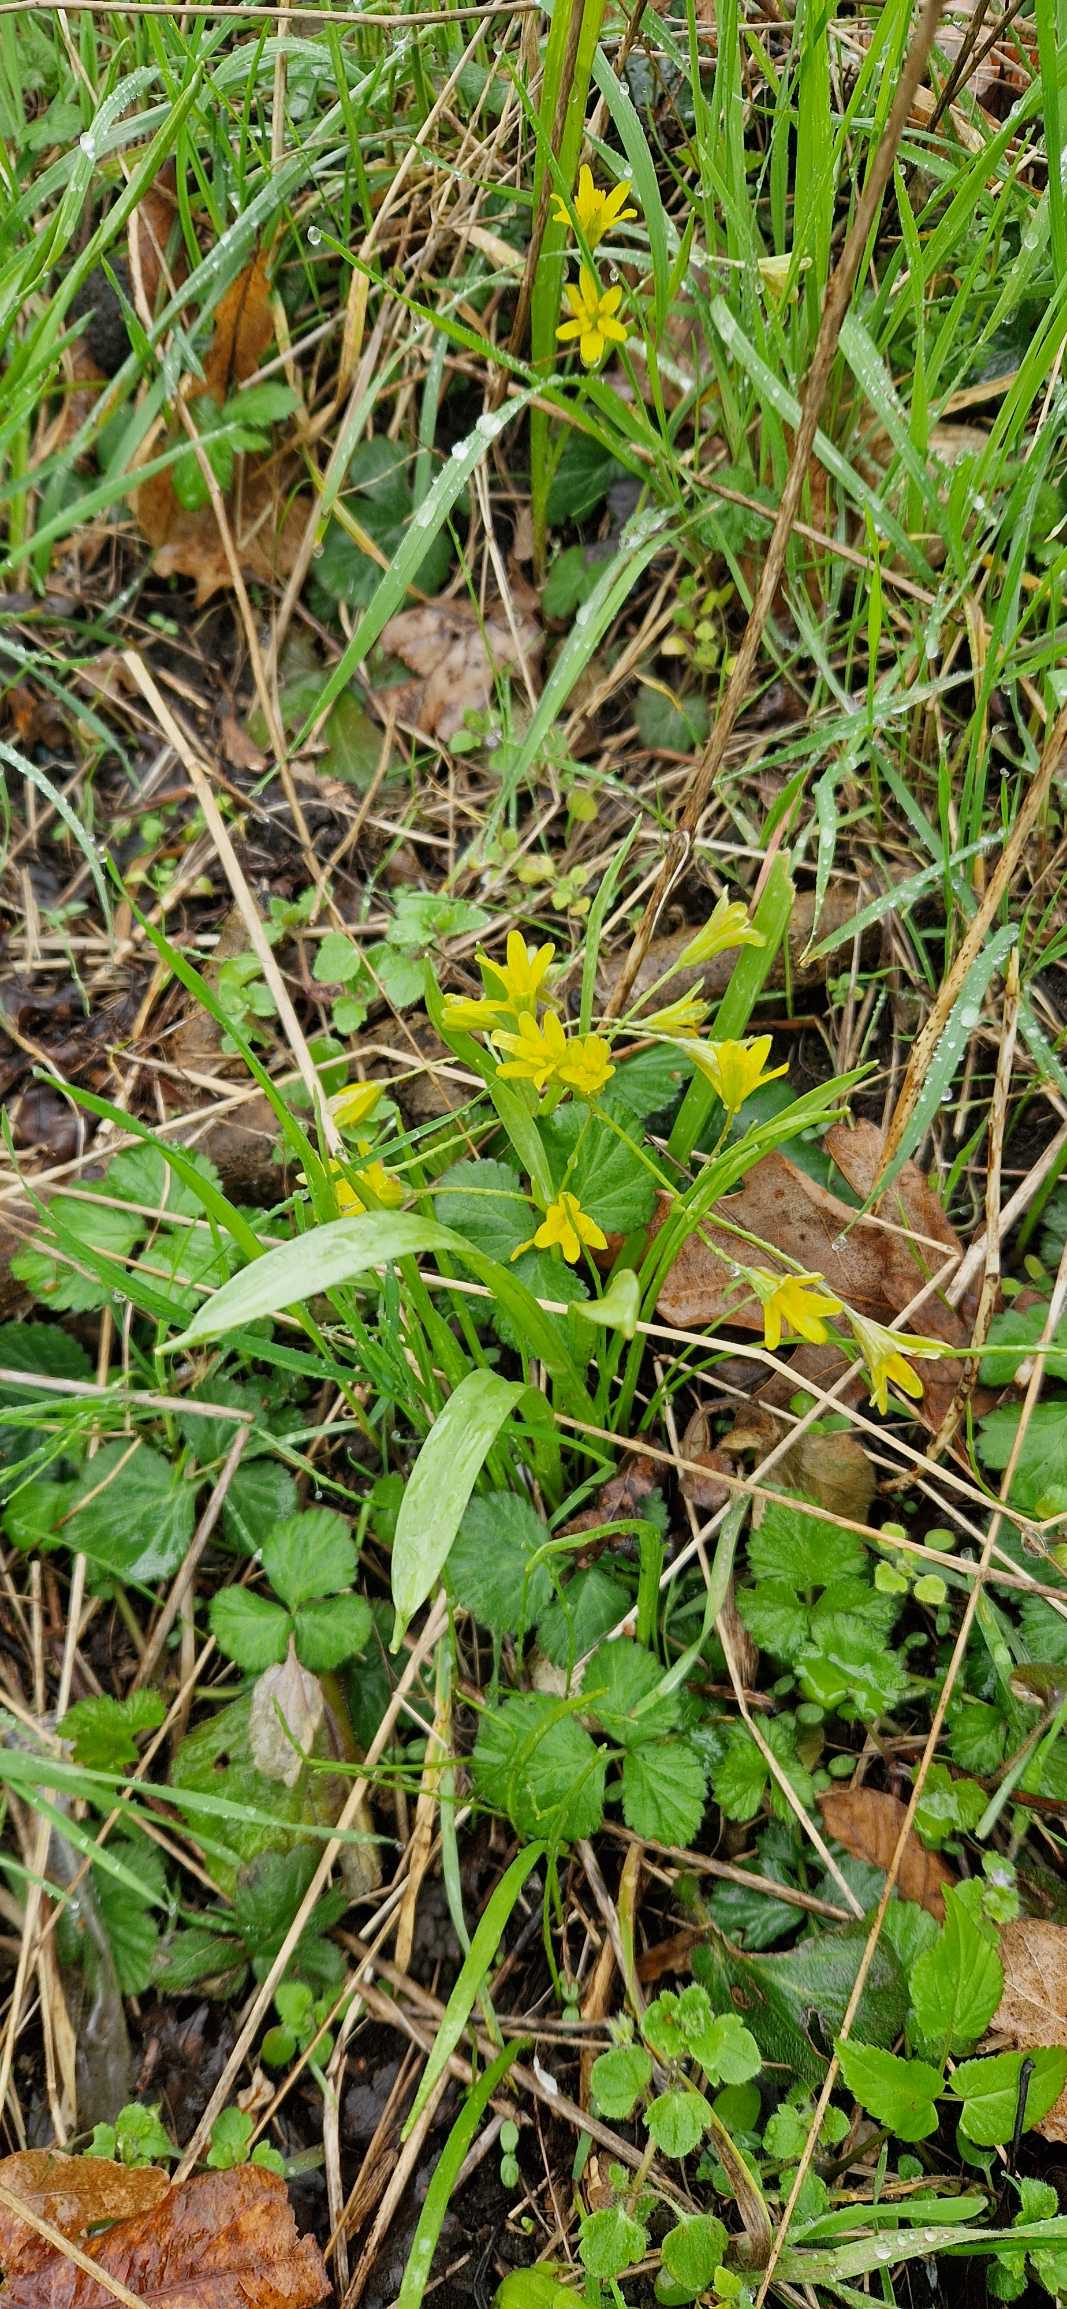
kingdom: Plantae
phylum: Tracheophyta
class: Liliopsida
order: Liliales
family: Liliaceae
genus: Gagea
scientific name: Gagea lutea
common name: Almindelig guldstjerne
